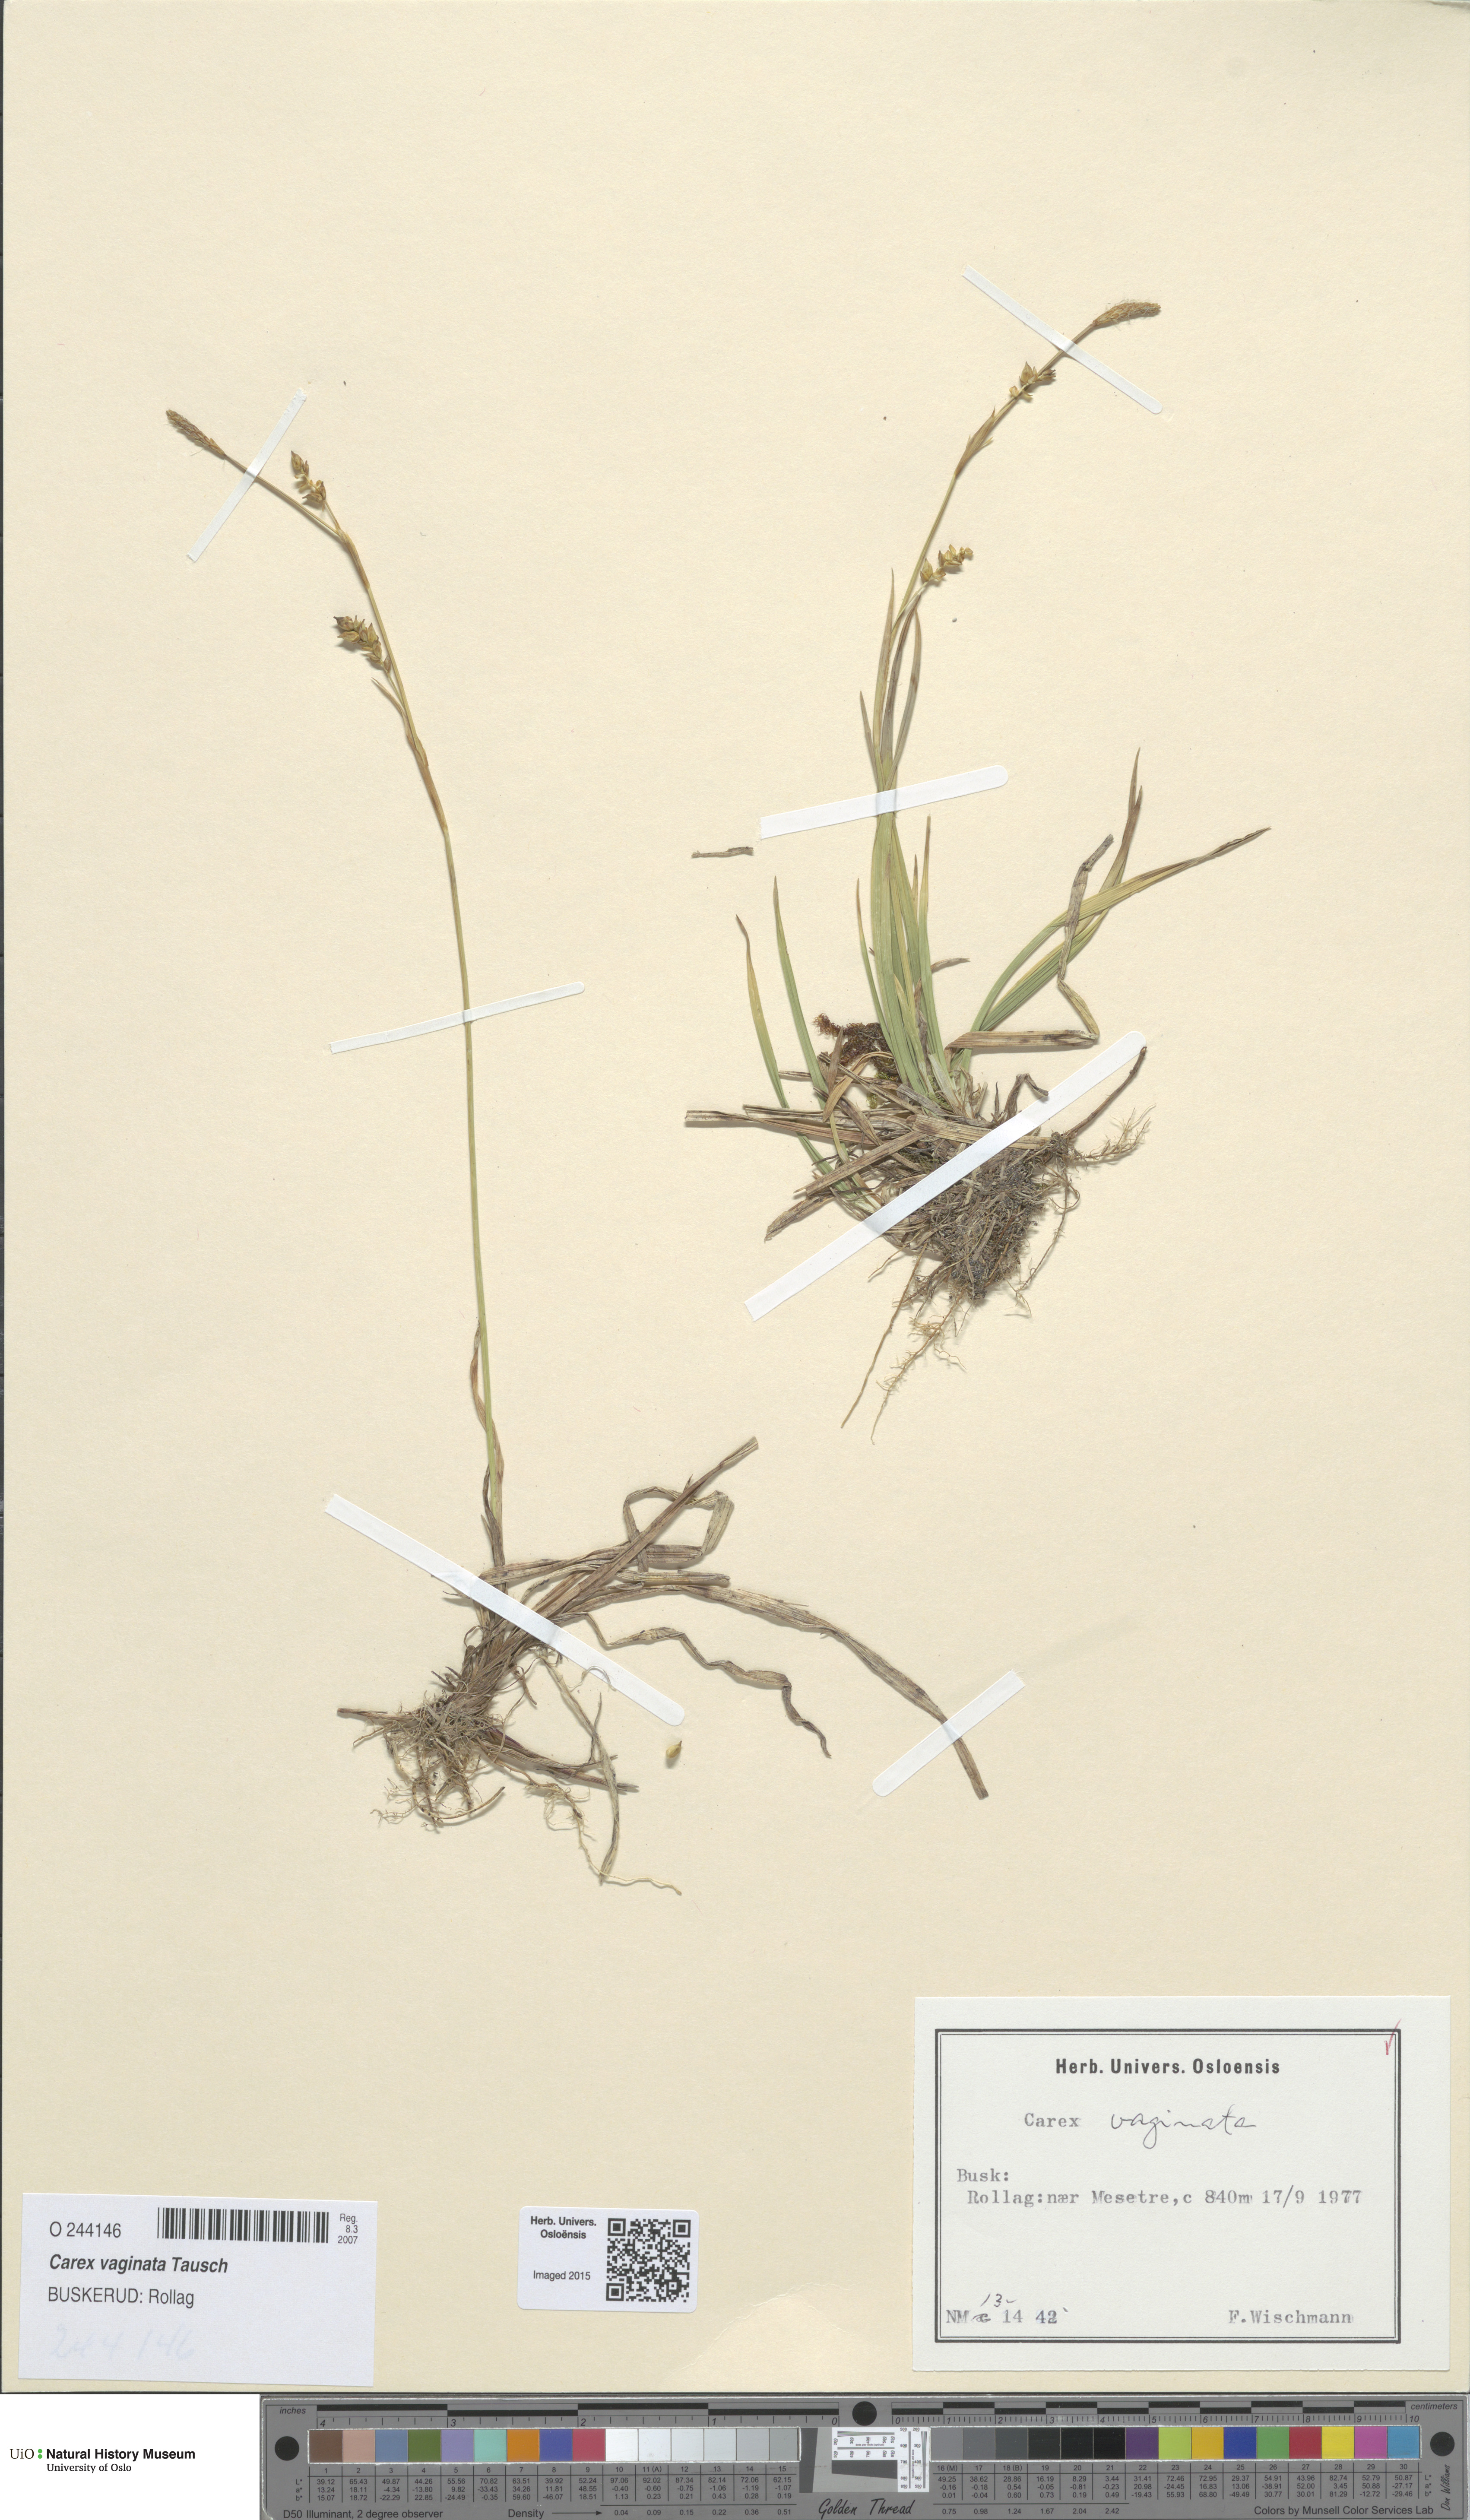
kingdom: Plantae
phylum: Tracheophyta
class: Liliopsida
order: Poales
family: Cyperaceae
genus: Carex
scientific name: Carex vaginata
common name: Sheathed sedge
